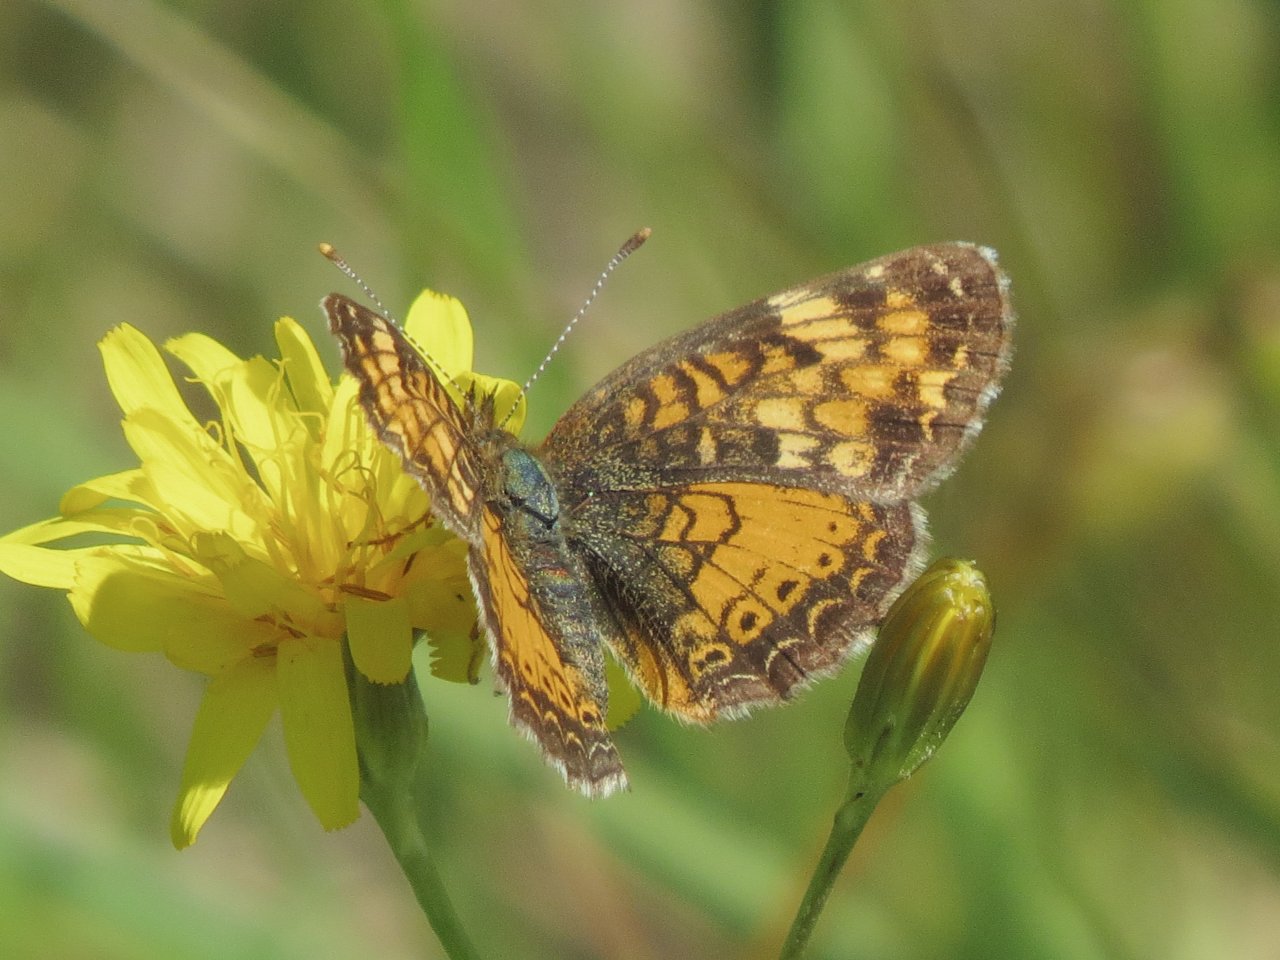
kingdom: Animalia
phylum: Arthropoda
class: Insecta
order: Lepidoptera
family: Nymphalidae
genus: Phyciodes
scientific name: Phyciodes tharos
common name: Northern Crescent
